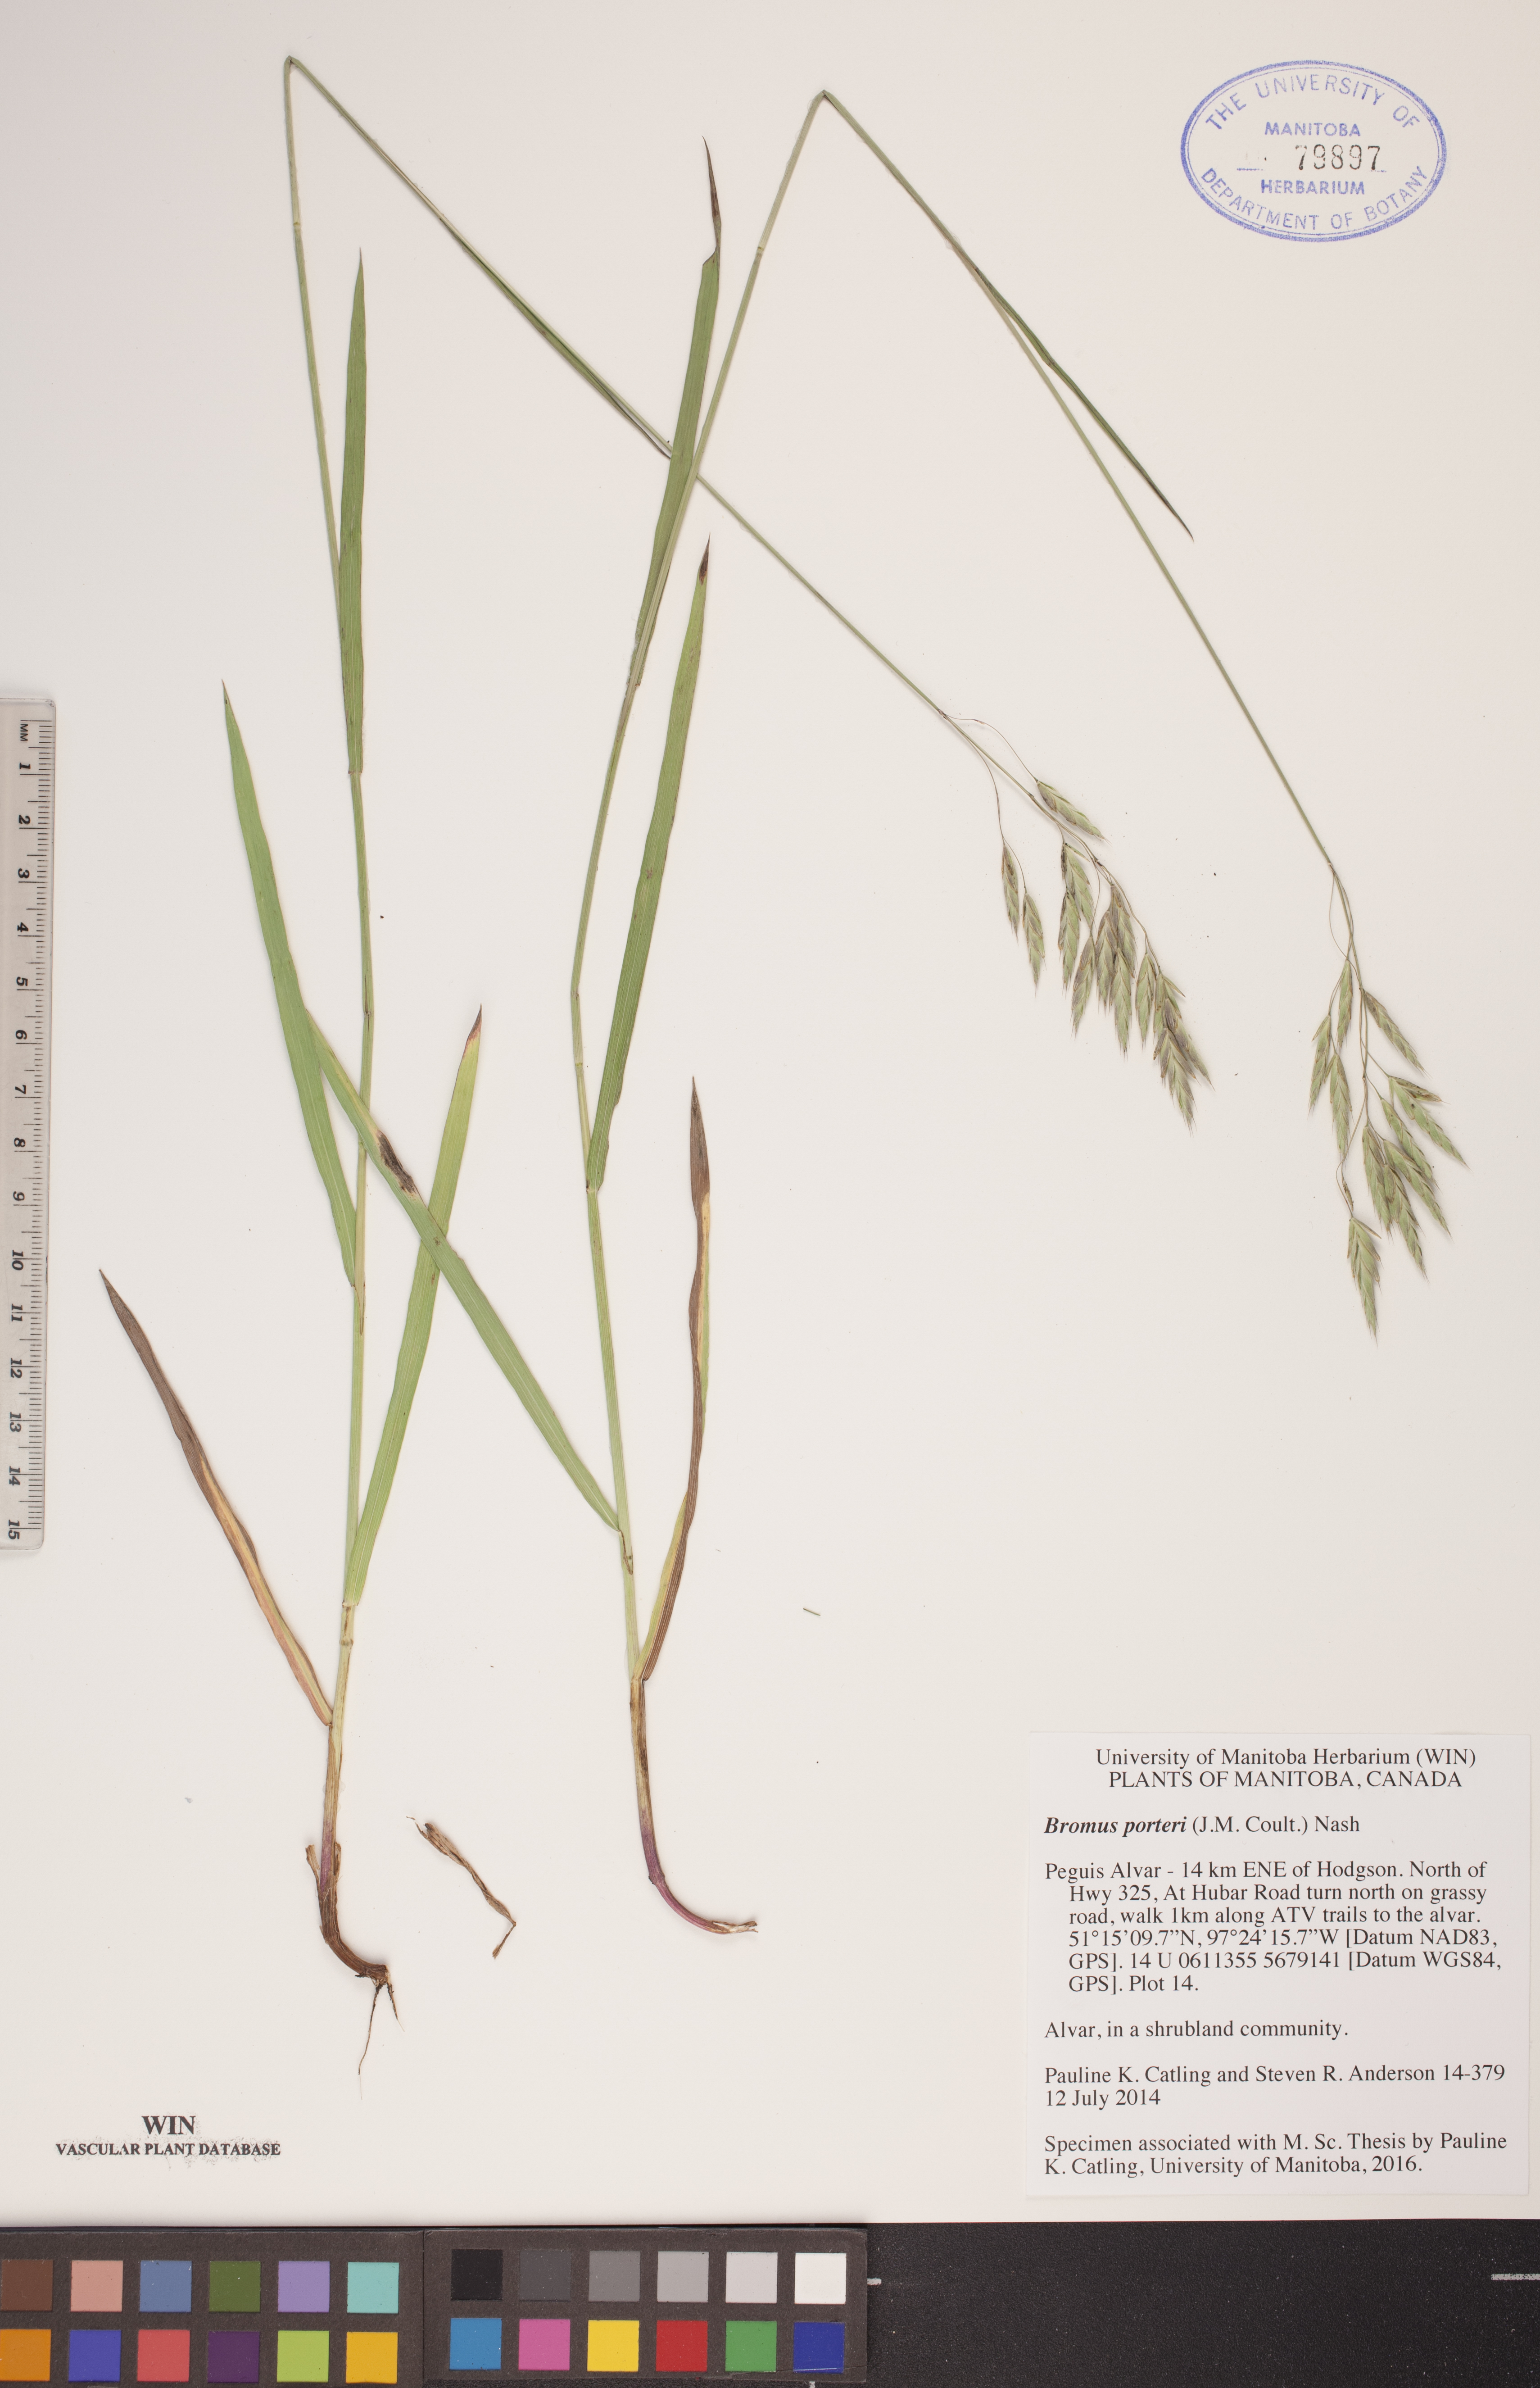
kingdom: Plantae
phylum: Tracheophyta
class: Liliopsida
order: Poales
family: Poaceae
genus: Bromus
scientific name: Bromus porteri
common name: Nodding brome
